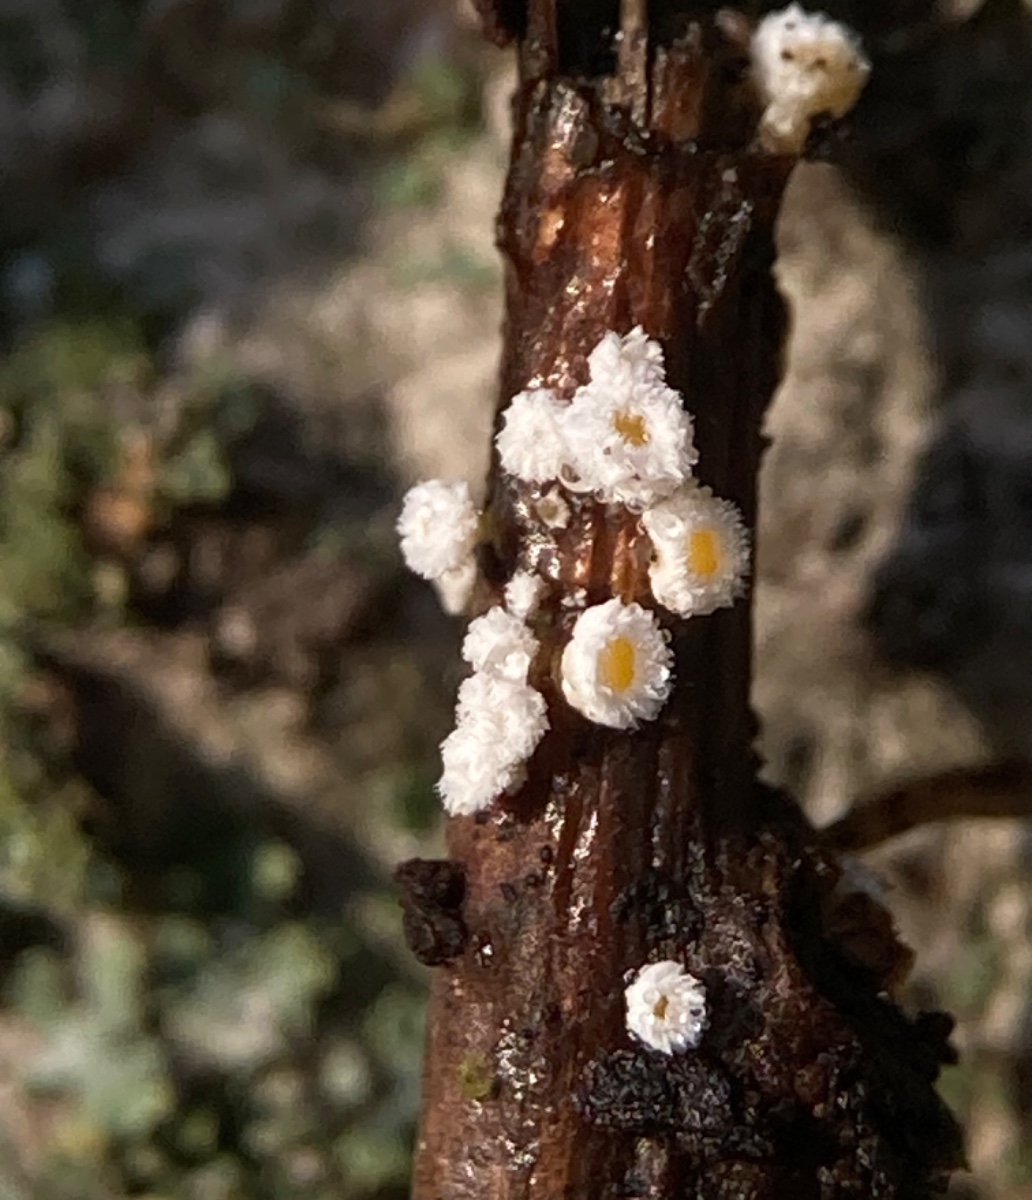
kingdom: Fungi
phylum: Ascomycota
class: Leotiomycetes
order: Helotiales
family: Lachnaceae
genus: Capitotricha
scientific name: Capitotricha bicolor
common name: prægtig frynseskive
